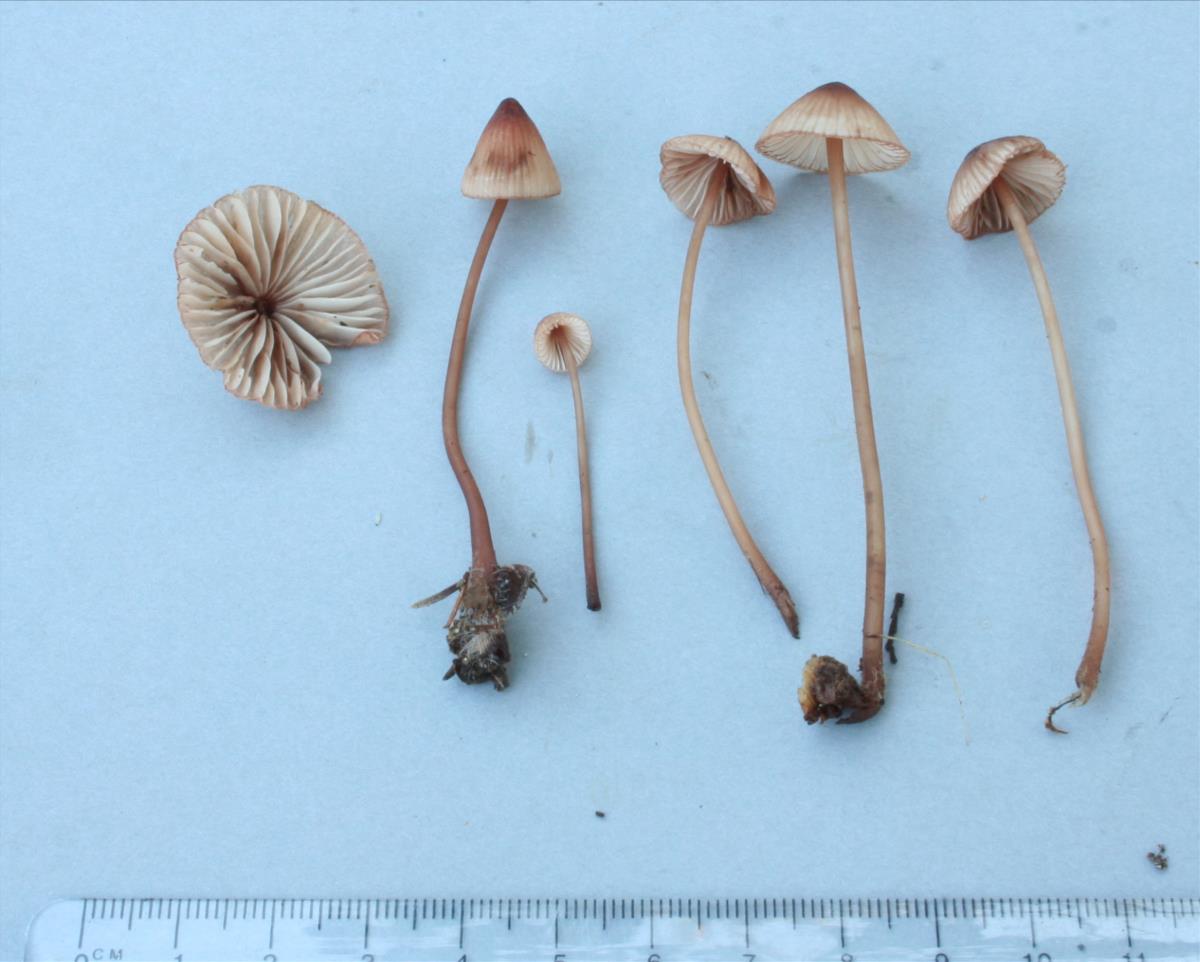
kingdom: Fungi
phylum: Basidiomycota
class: Agaricomycetes
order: Agaricales
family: Mycenaceae
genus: Mycena
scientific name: Mycena mariae
